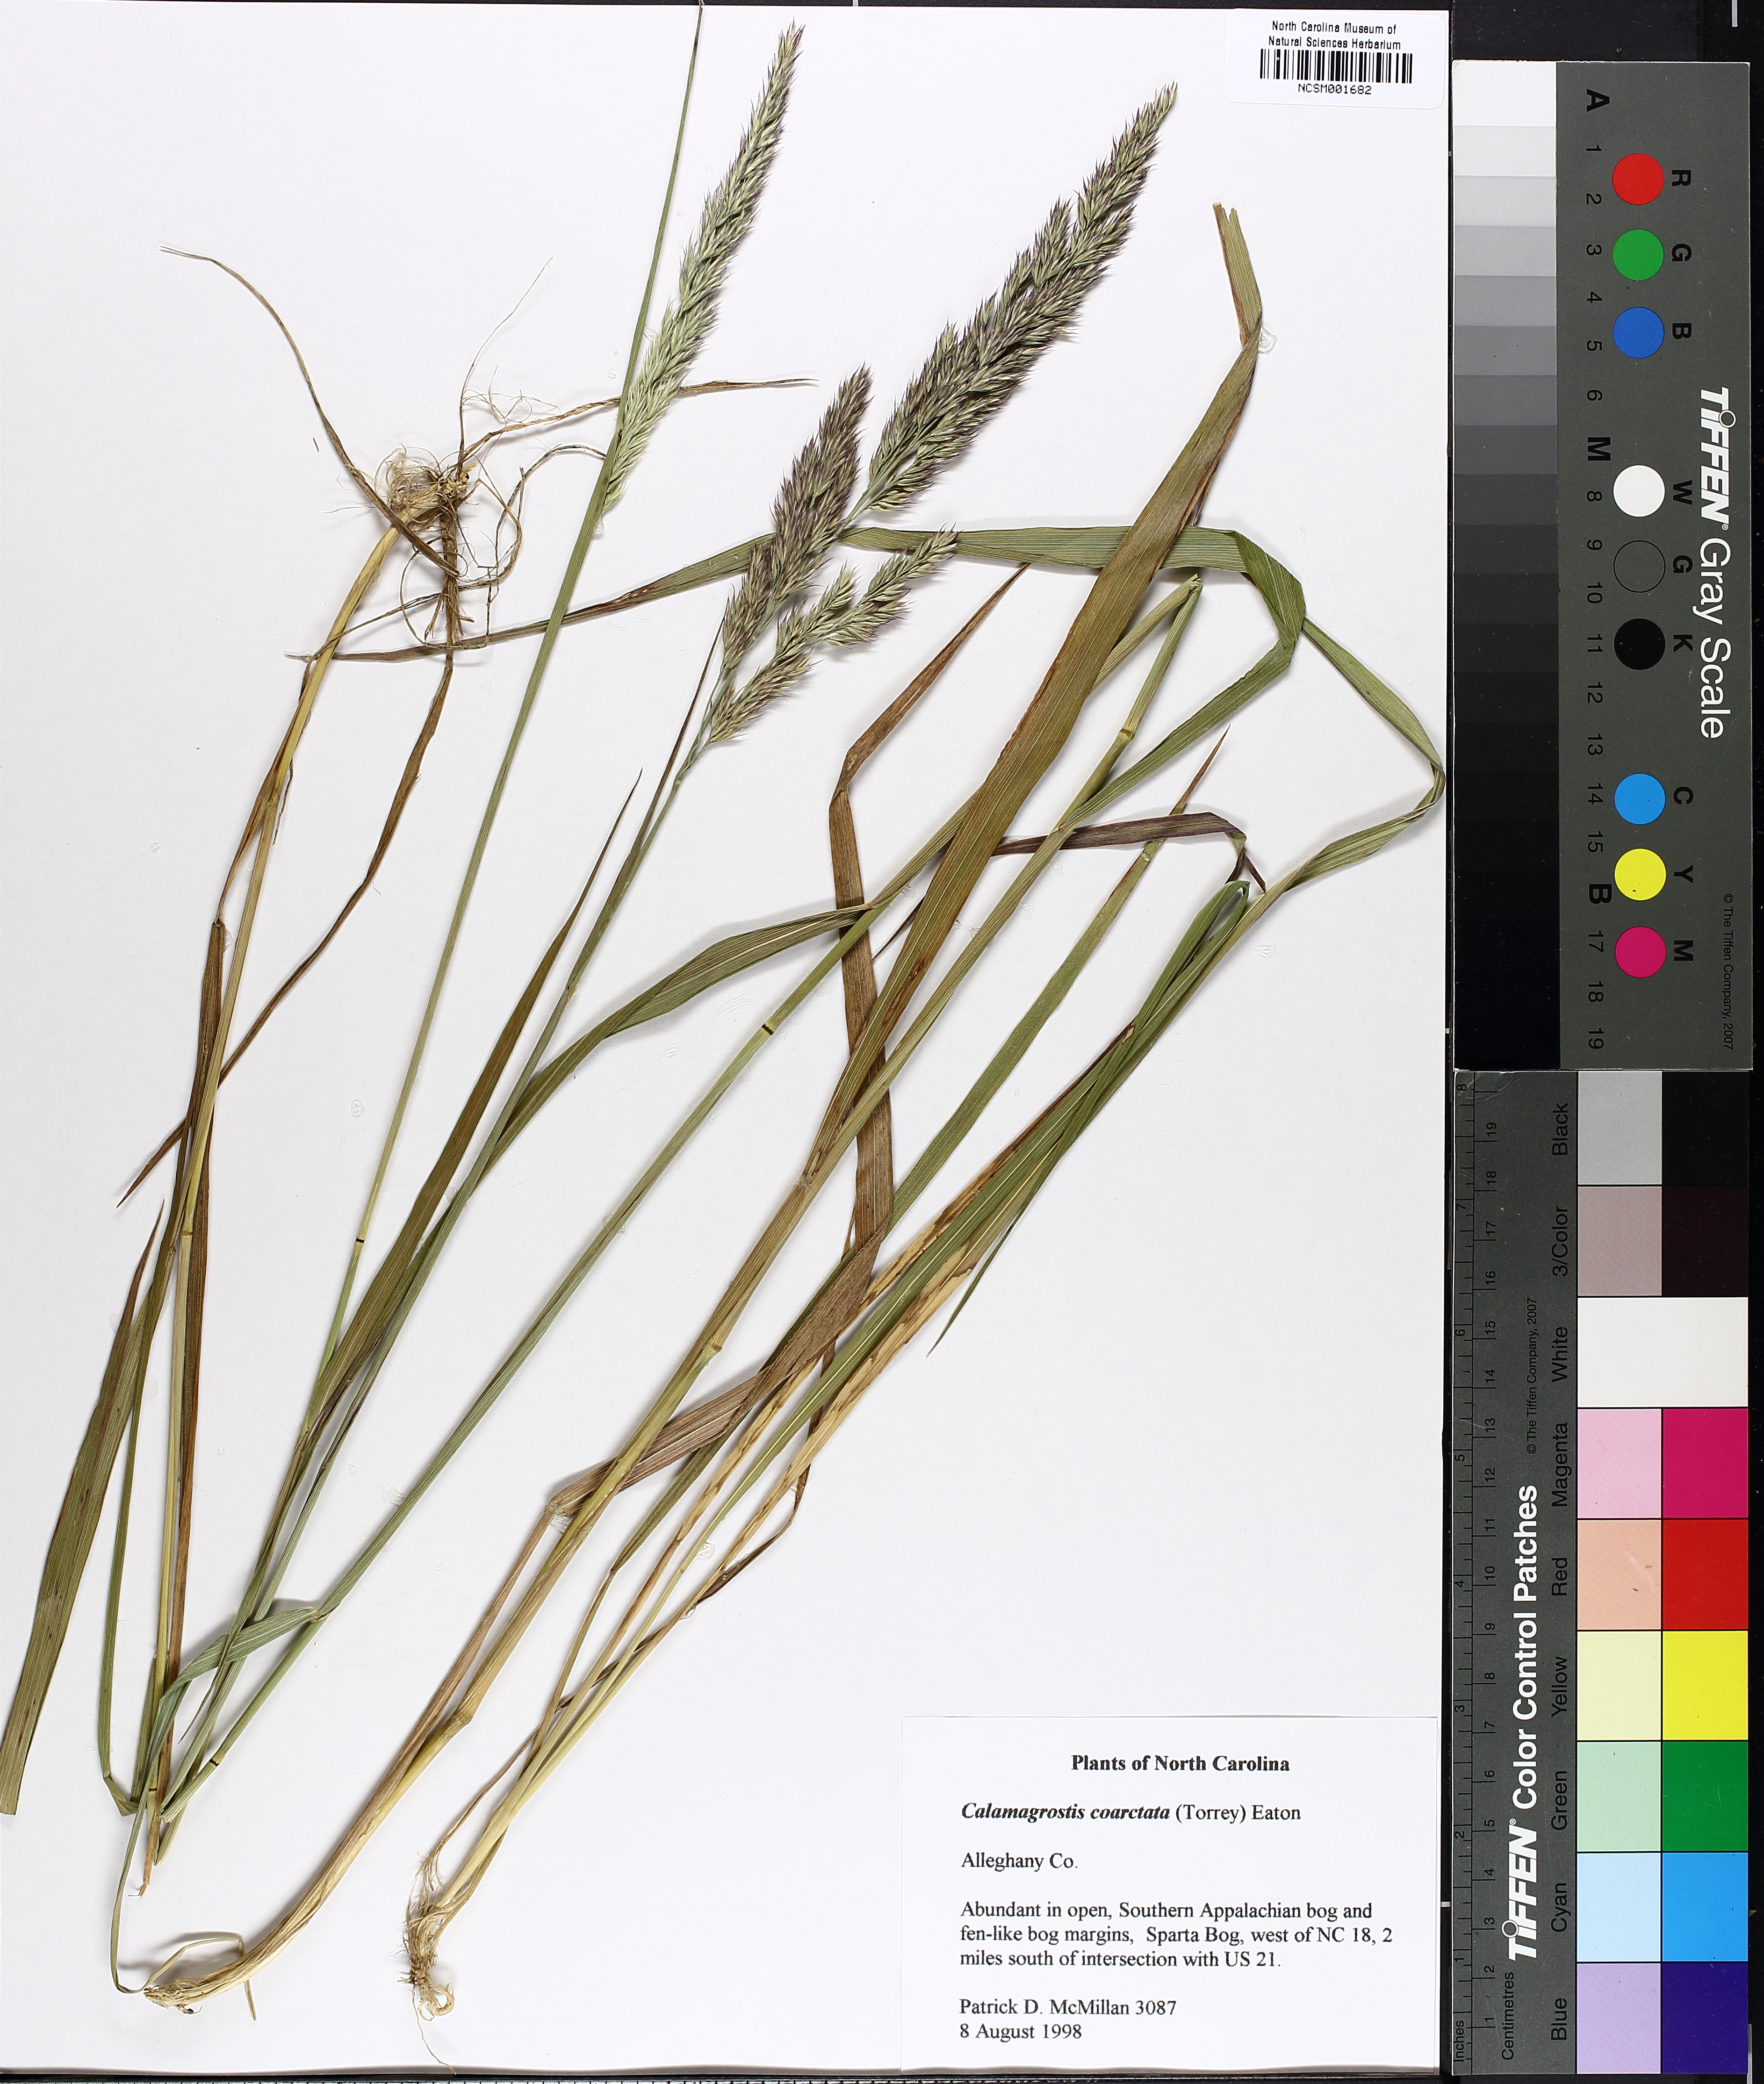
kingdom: Plantae
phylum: Tracheophyta
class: Liliopsida
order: Poales
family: Poaceae
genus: Greeneochloa
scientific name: Greeneochloa coarctata
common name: Small reedgrass
